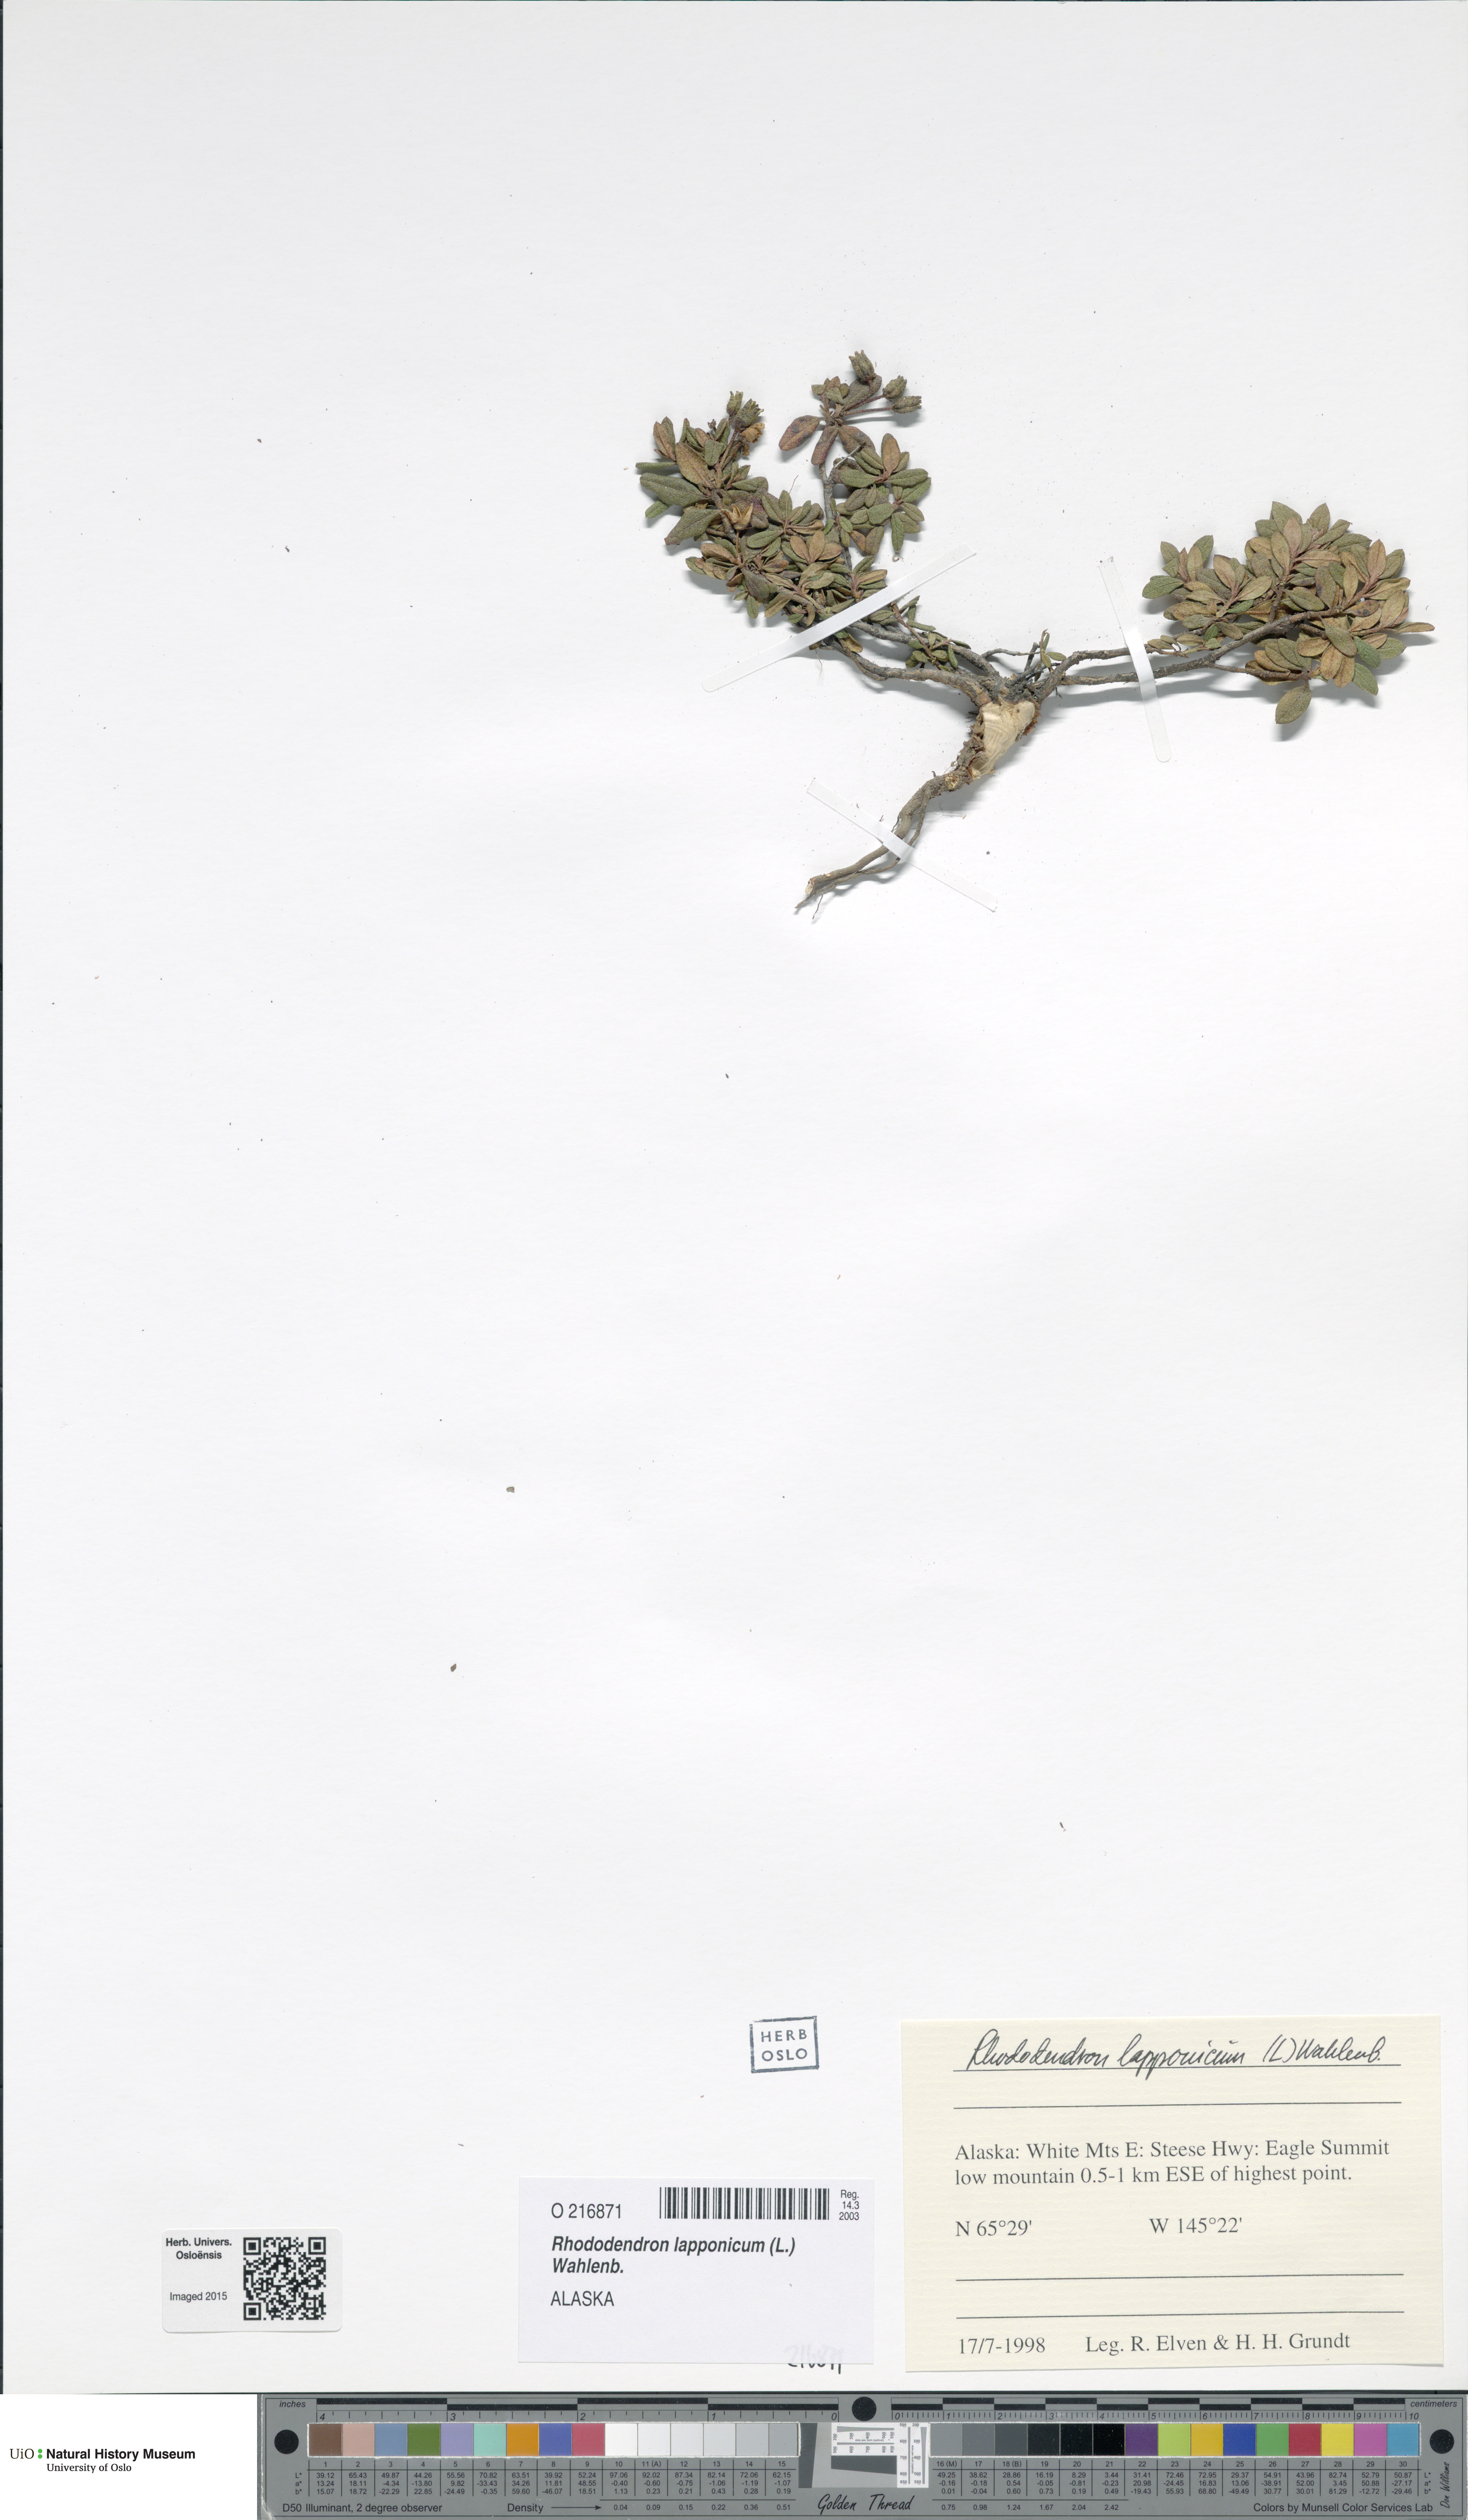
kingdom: Plantae
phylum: Tracheophyta
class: Magnoliopsida
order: Ericales
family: Ericaceae
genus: Rhododendron
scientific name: Rhododendron lapponicum
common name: Lapland rhododendron
